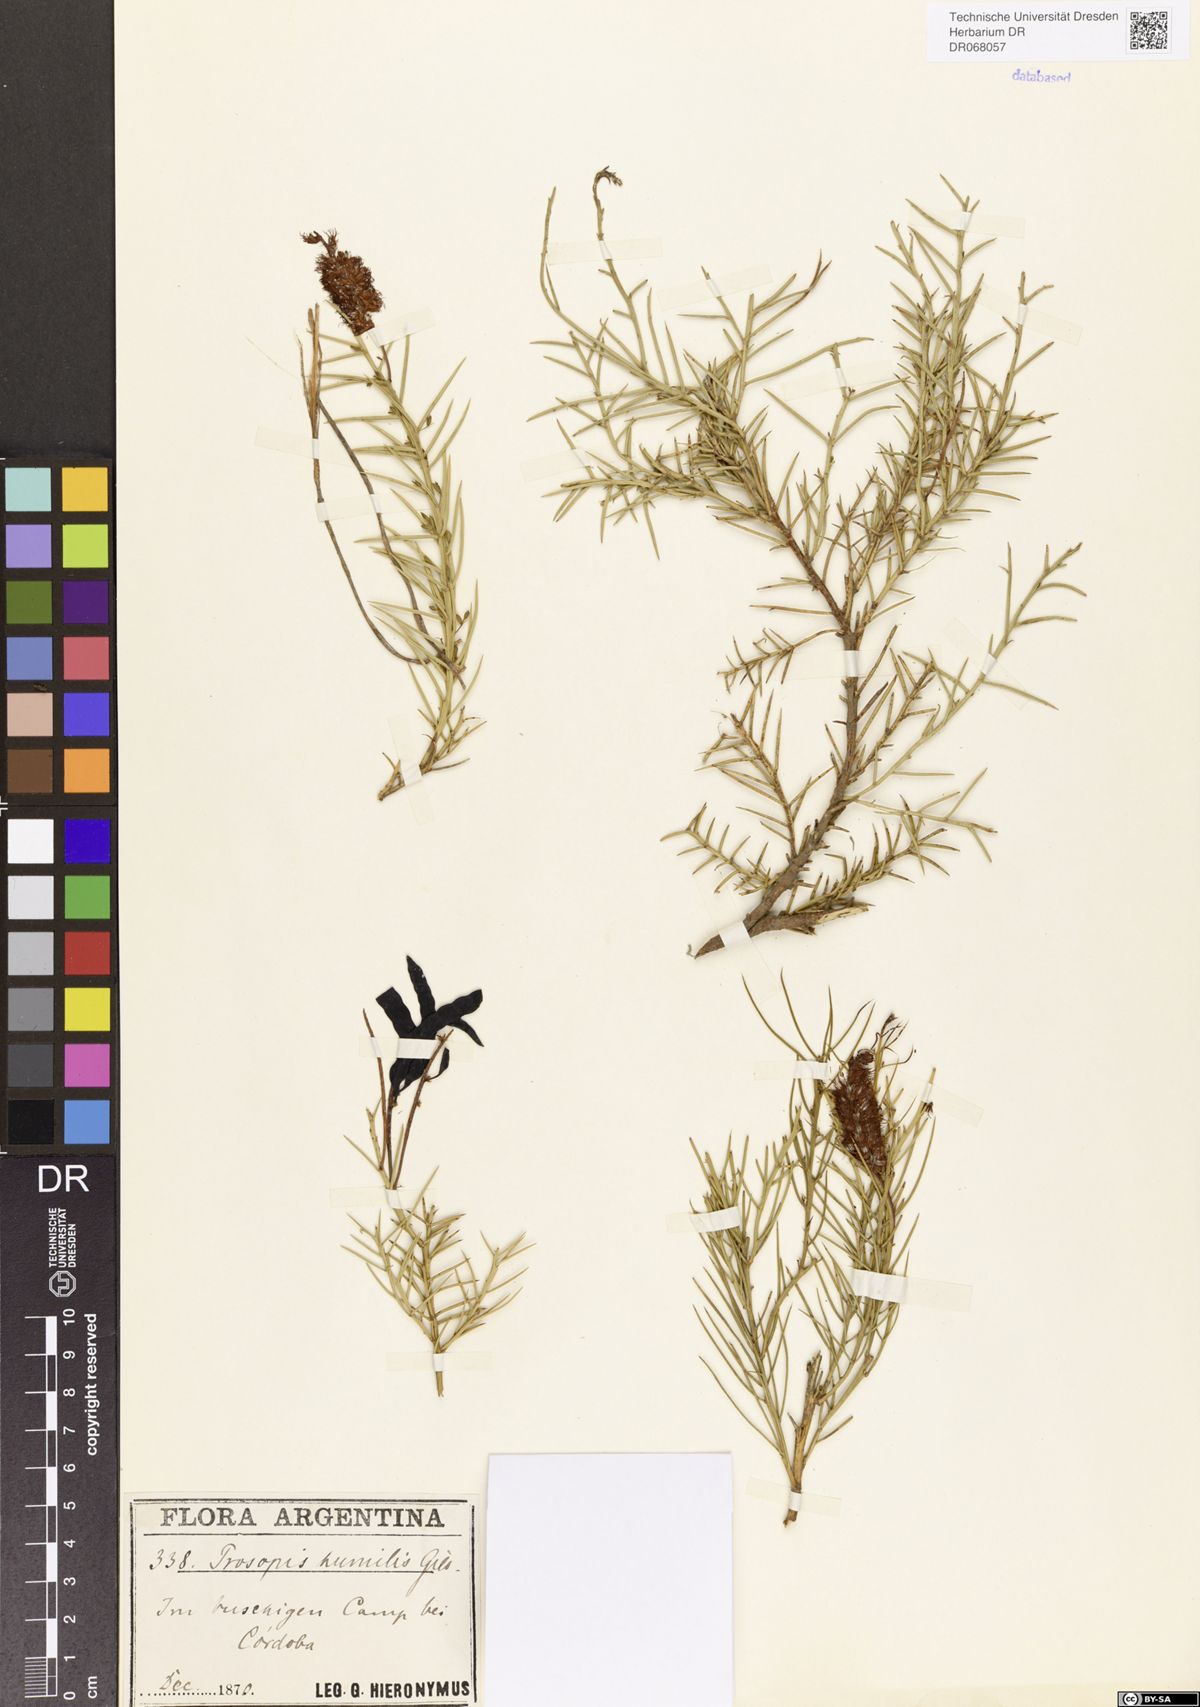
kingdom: Plantae
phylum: Tracheophyta
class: Magnoliopsida
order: Fabales
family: Fabaceae
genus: Prosopis
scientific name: Prosopis humilis
